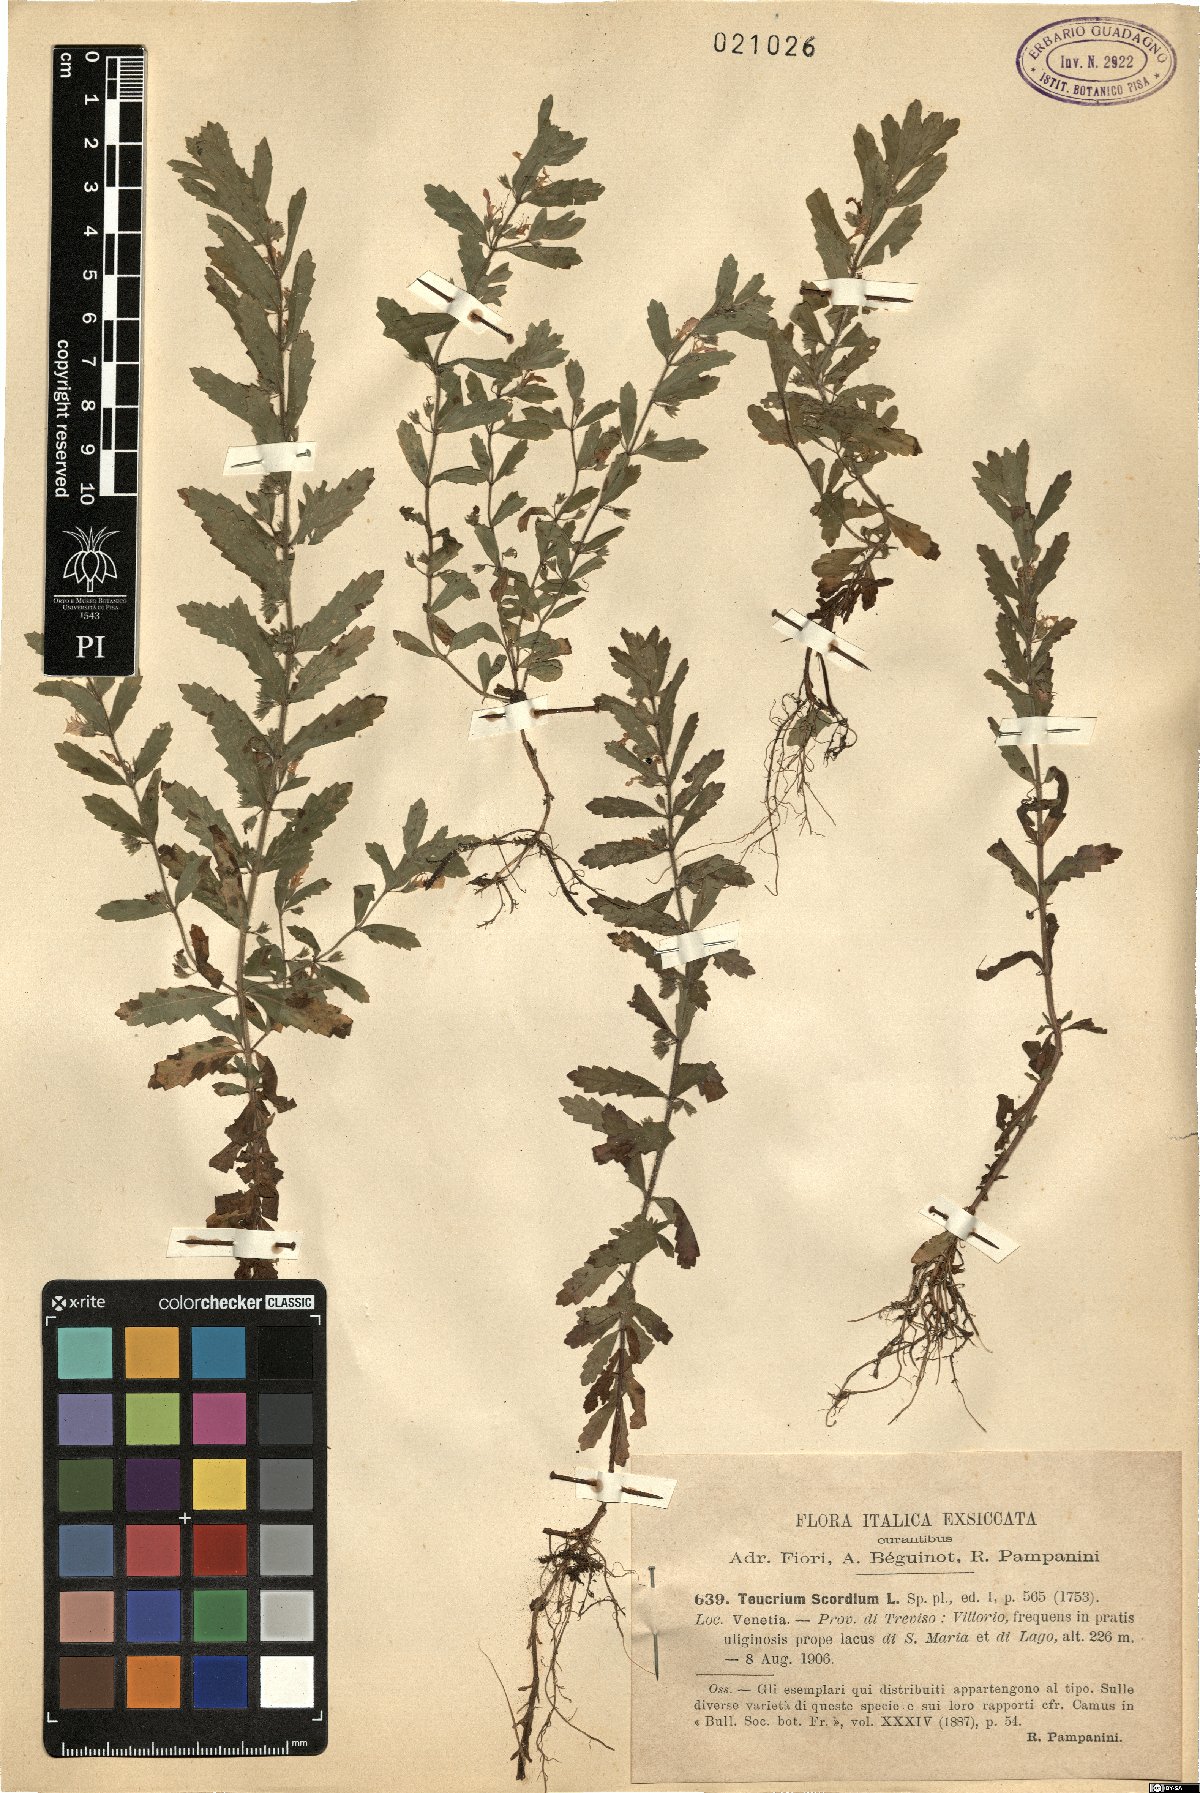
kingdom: Plantae
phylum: Tracheophyta
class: Magnoliopsida
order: Lamiales
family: Lamiaceae
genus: Teucrium
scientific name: Teucrium scordium
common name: Water germander
